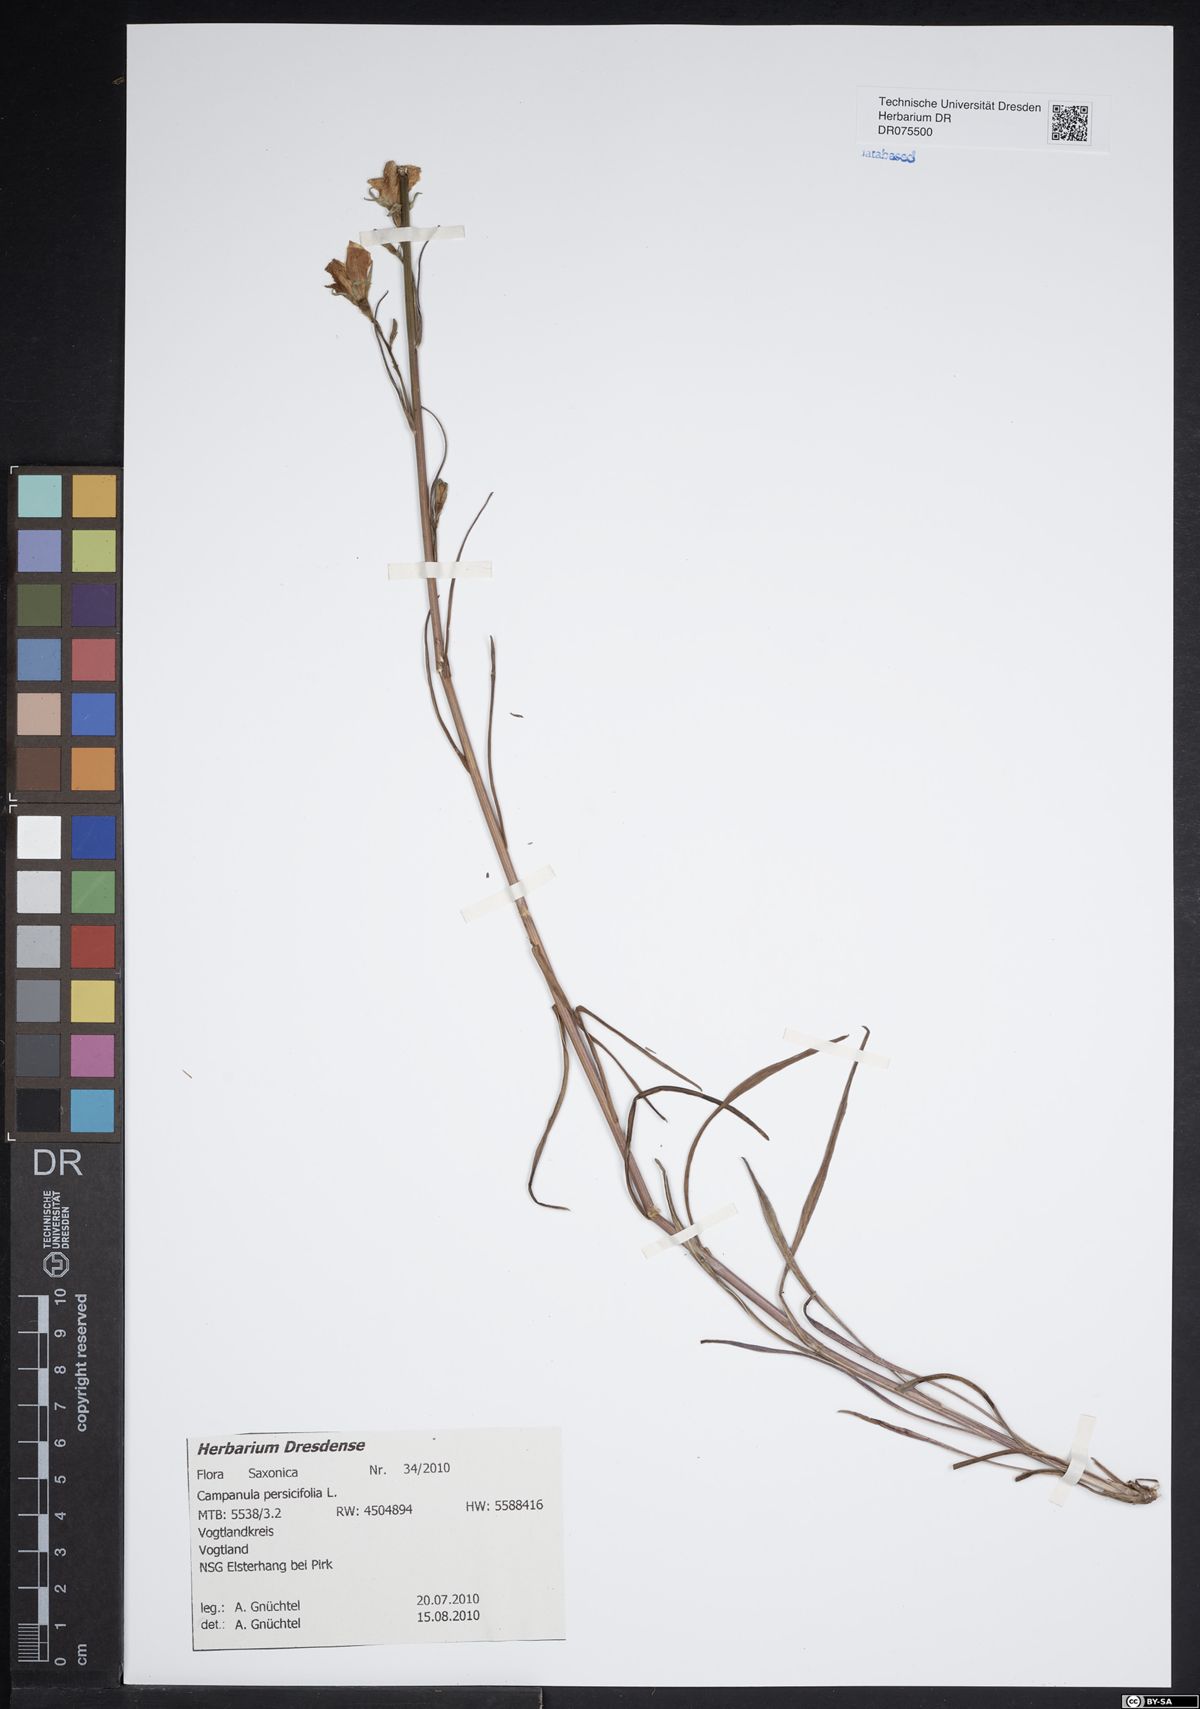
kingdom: Plantae
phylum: Tracheophyta
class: Magnoliopsida
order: Asterales
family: Campanulaceae
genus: Campanula
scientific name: Campanula persicifolia
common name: Peach-leaved bellflower
